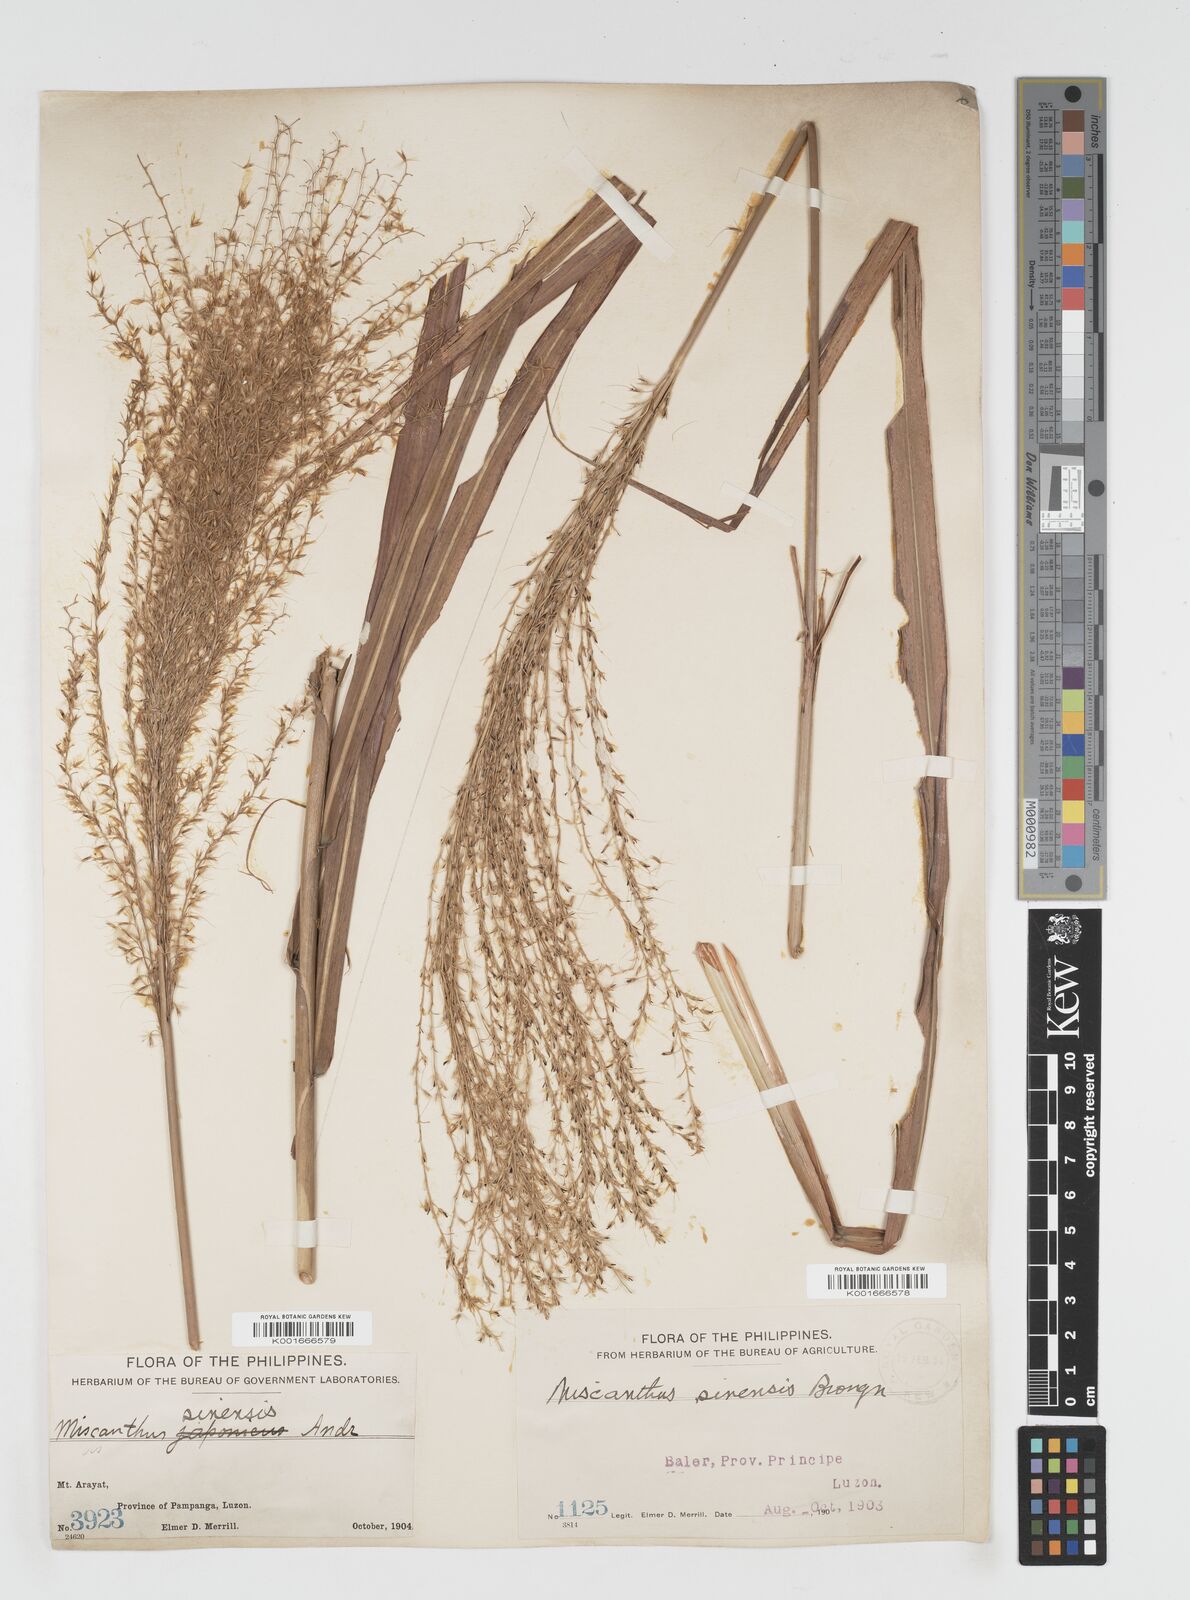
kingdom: Plantae
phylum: Tracheophyta
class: Liliopsida
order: Poales
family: Poaceae
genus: Miscanthus
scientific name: Miscanthus floridulus
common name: Pacific island silvergrass
